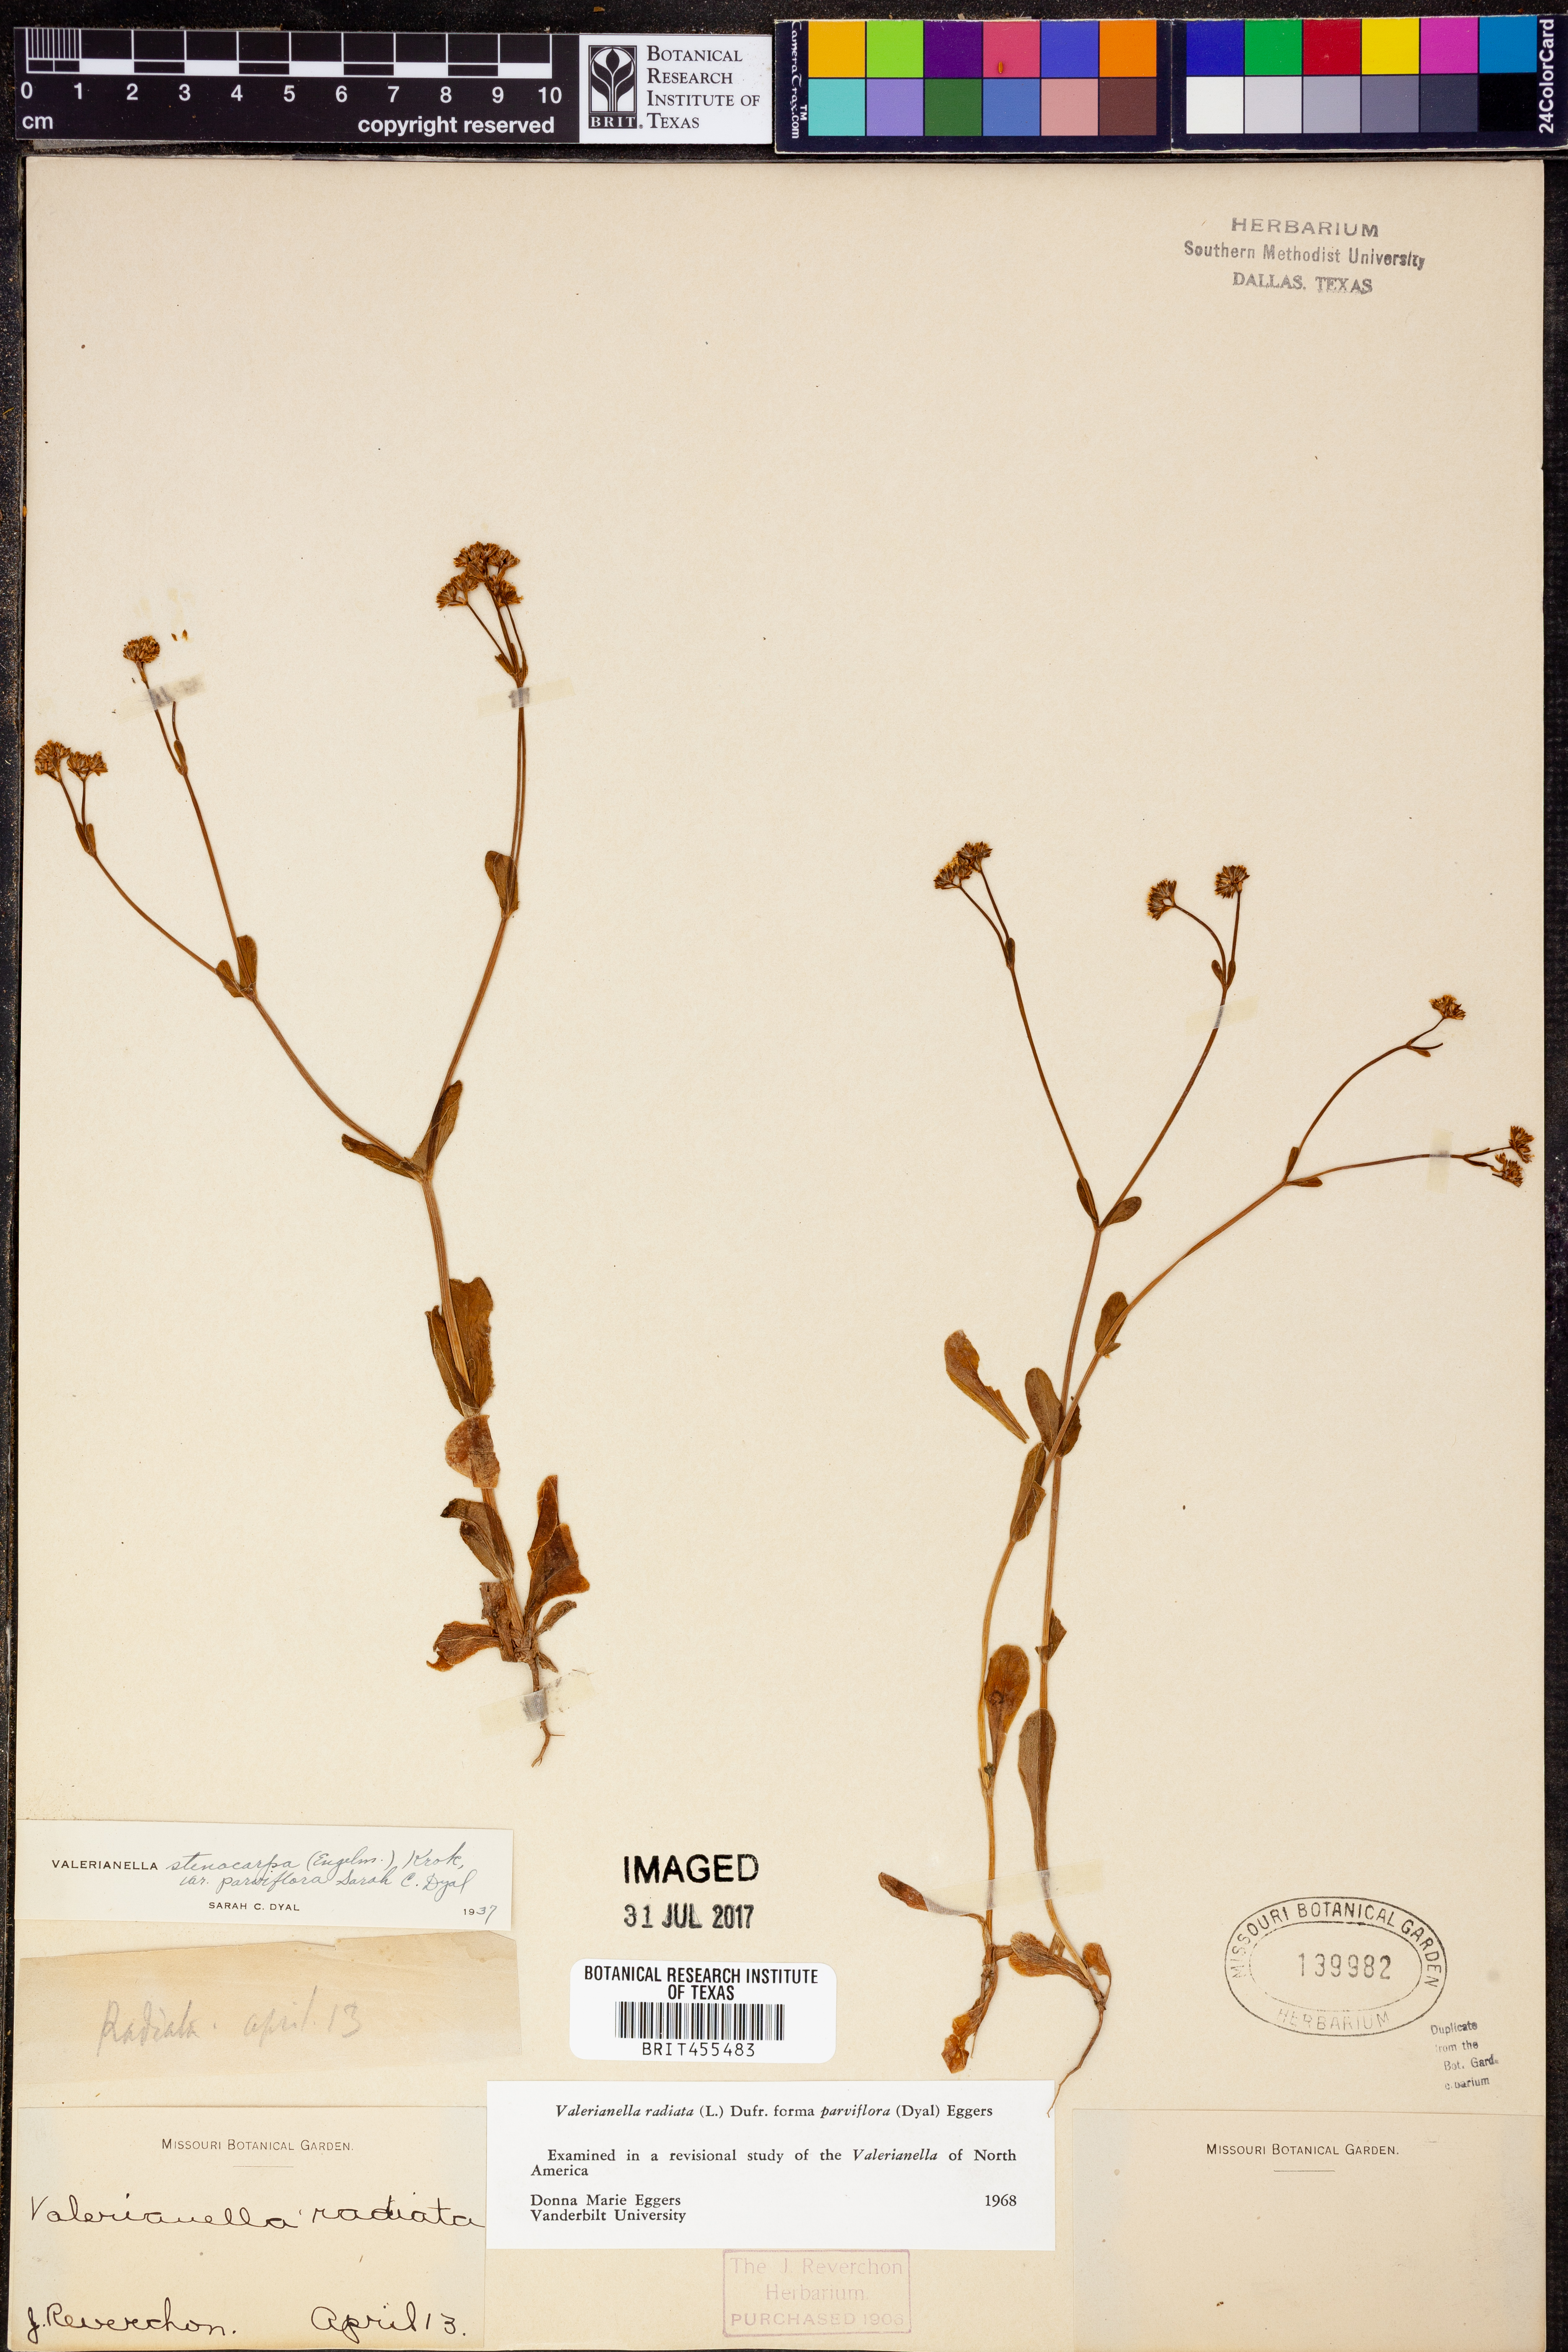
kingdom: Plantae
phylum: Tracheophyta
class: Magnoliopsida
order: Dipsacales
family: Caprifoliaceae
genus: Valerianella
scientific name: Valerianella radiata
